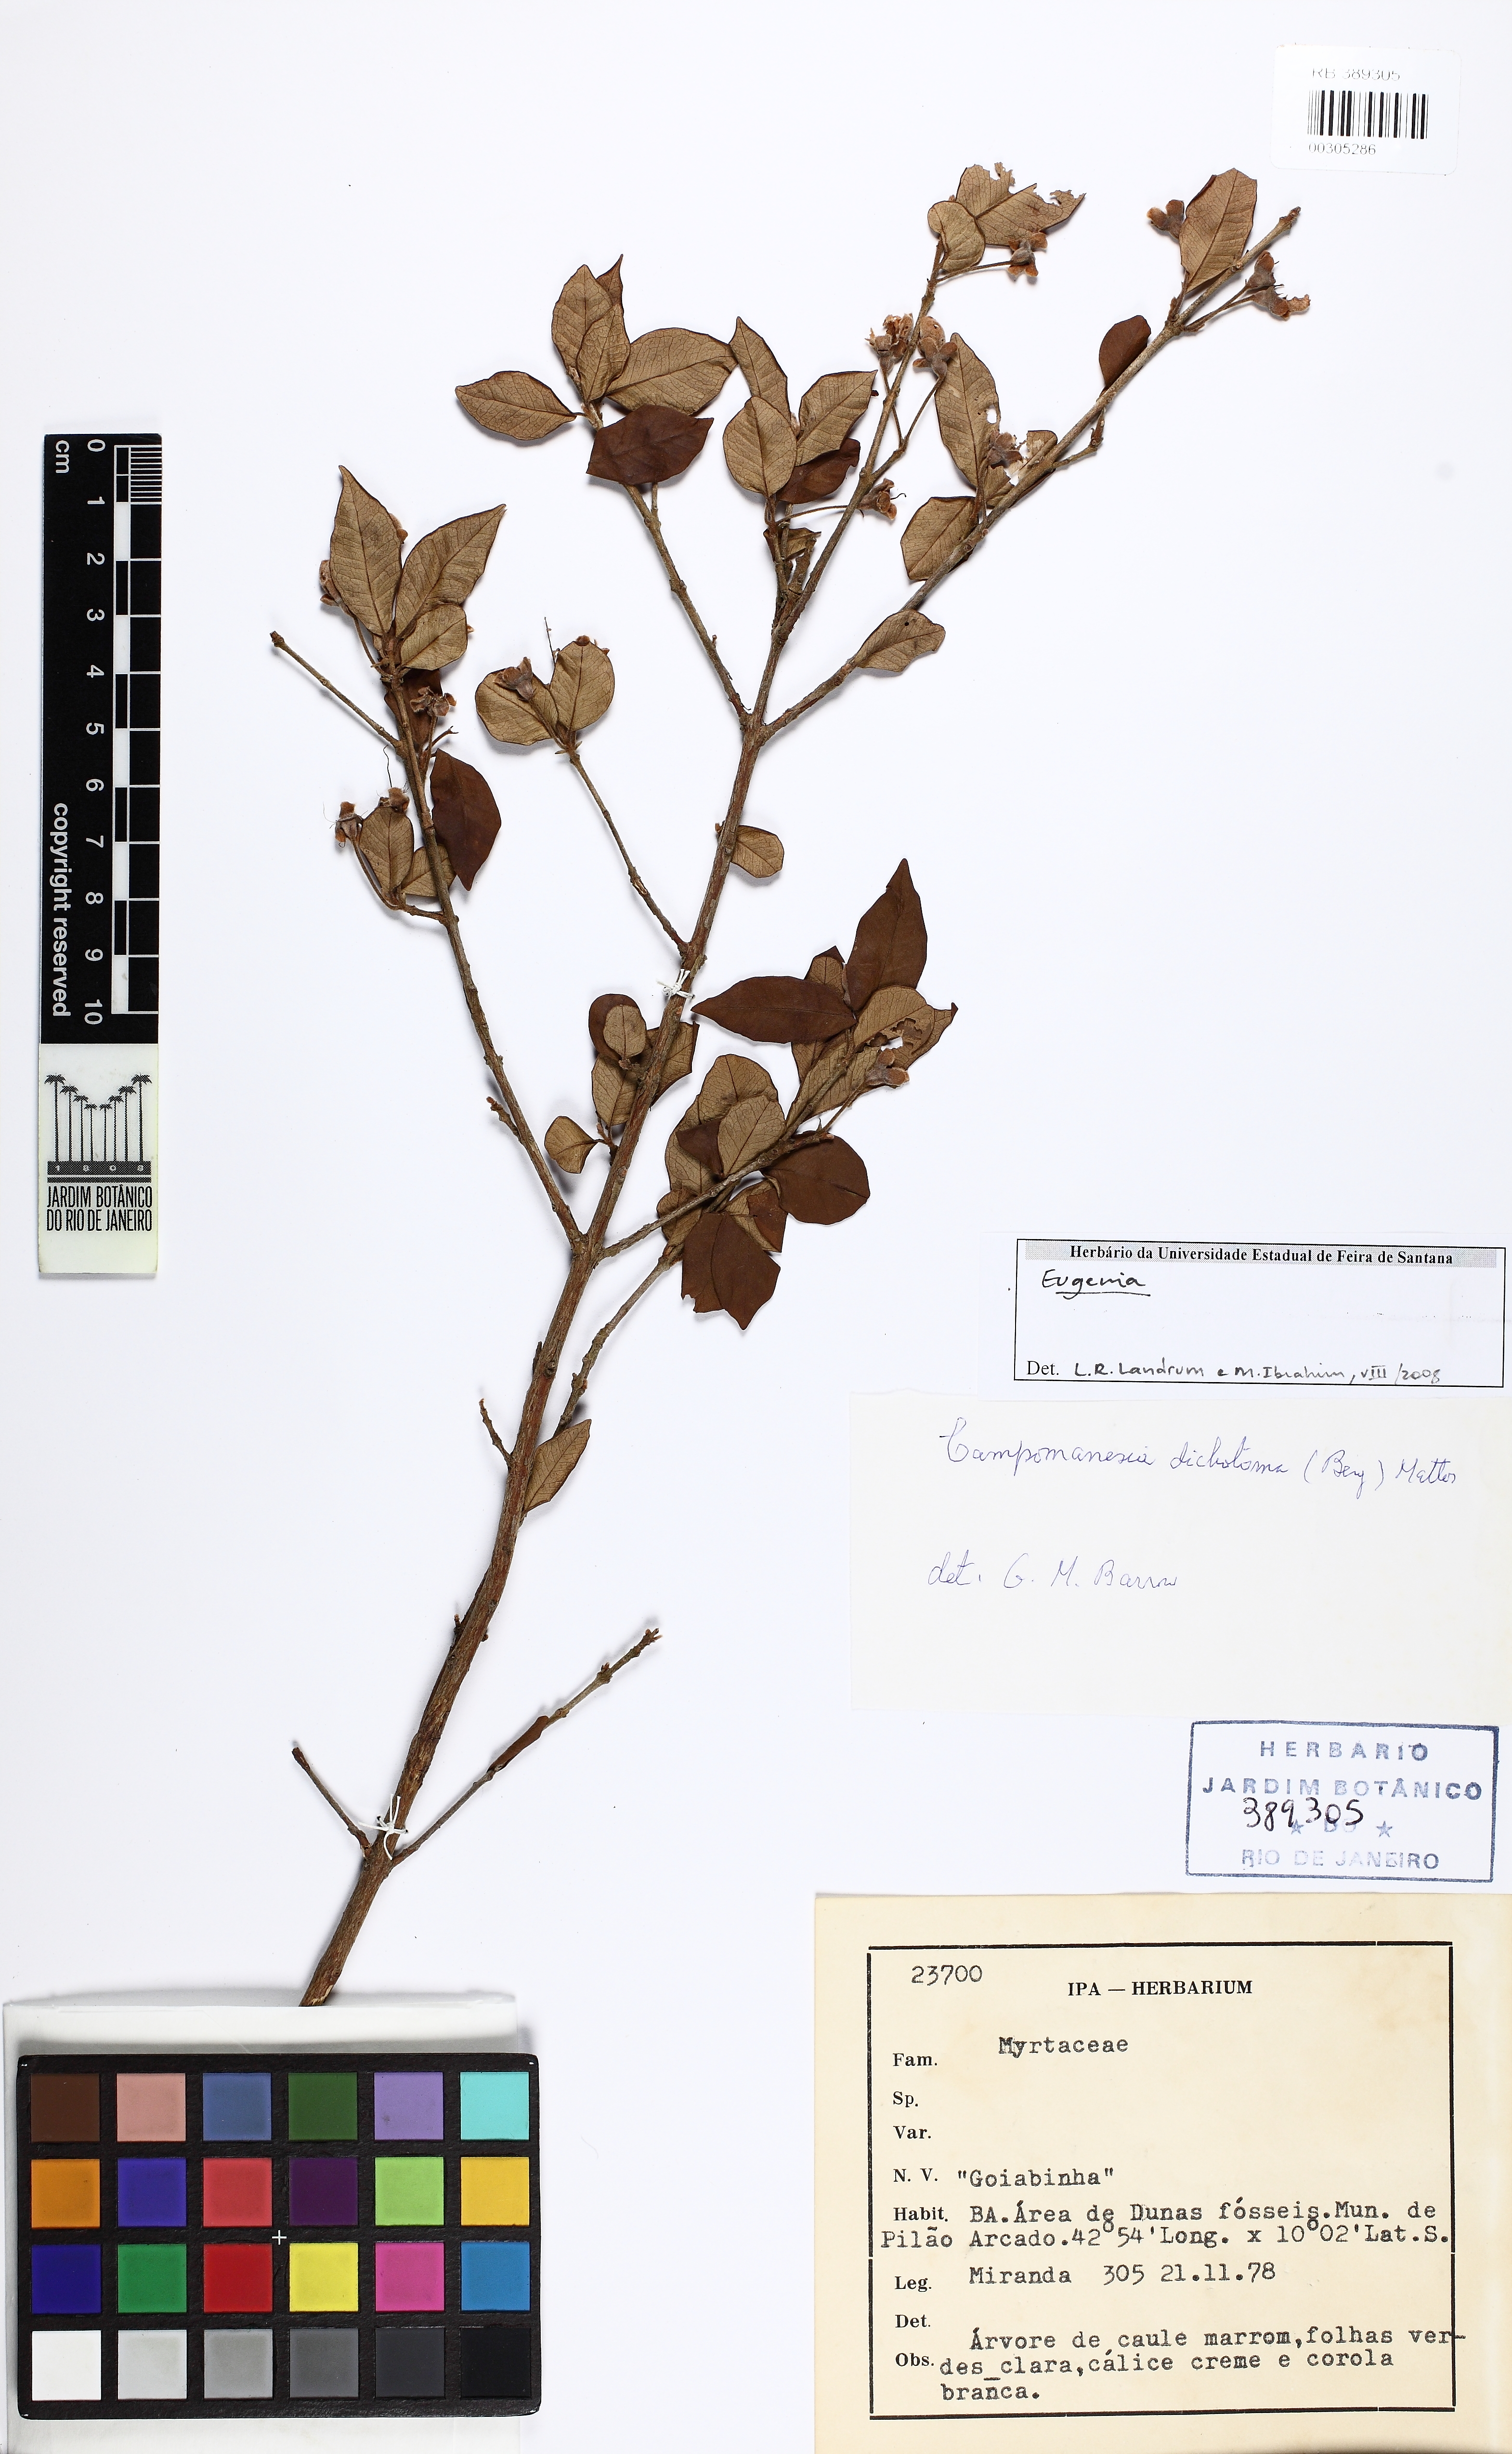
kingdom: Plantae
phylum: Tracheophyta
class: Magnoliopsida
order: Myrtales
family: Myrtaceae
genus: Eugenia
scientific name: Eugenia
